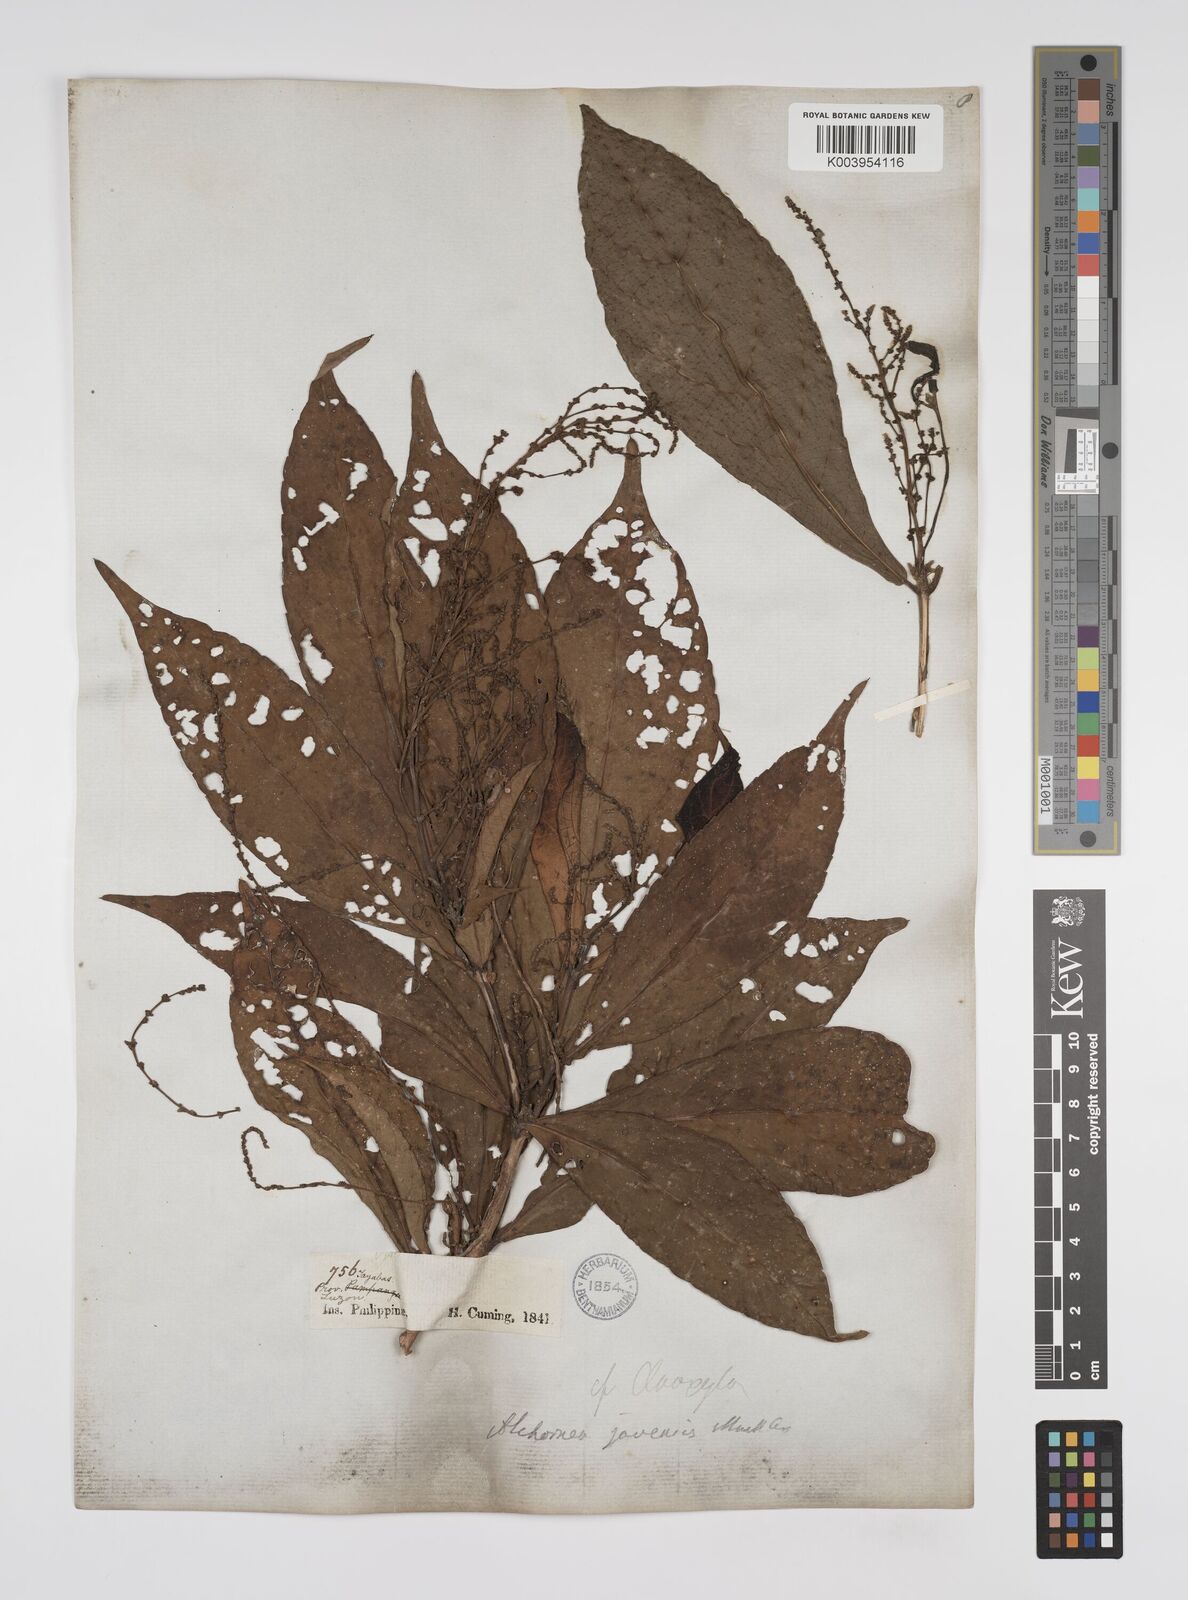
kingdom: Plantae
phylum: Tracheophyta
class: Magnoliopsida
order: Malpighiales
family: Euphorbiaceae
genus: Alchornea
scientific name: Alchornea rugosa
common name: Alchorntree
